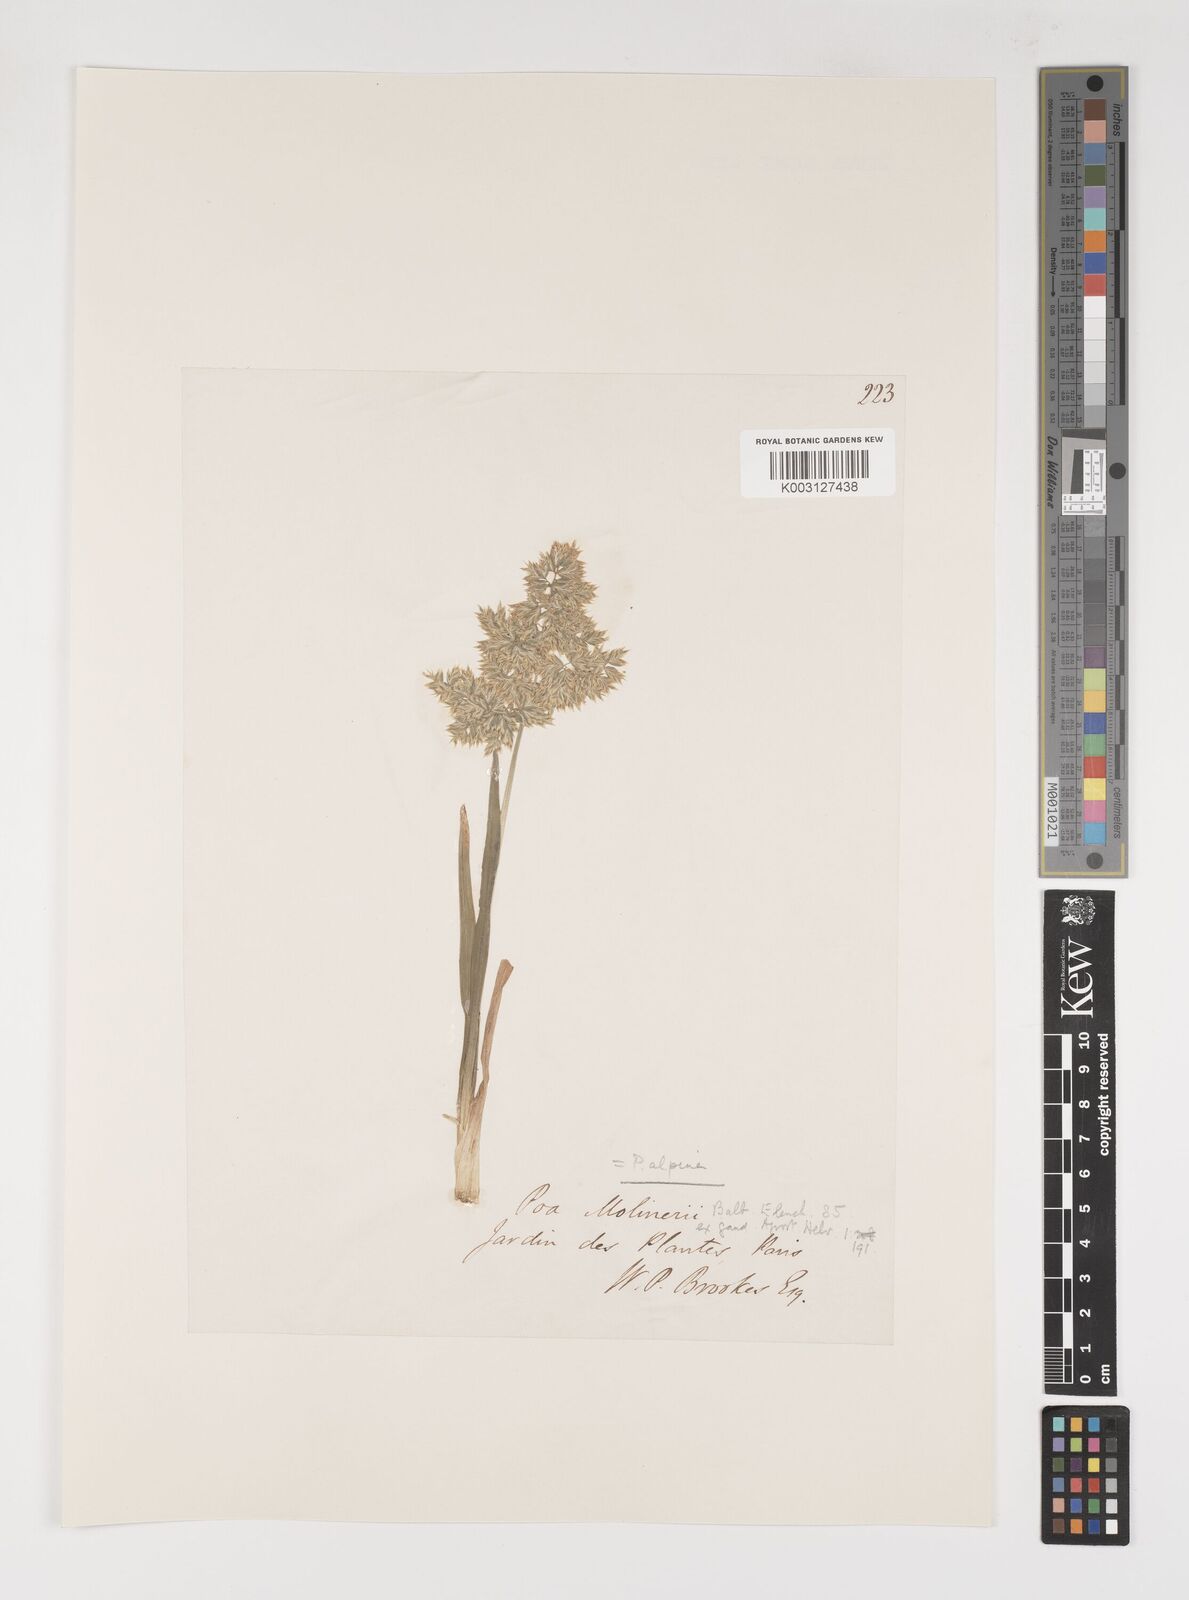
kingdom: Plantae
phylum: Tracheophyta
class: Liliopsida
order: Poales
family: Poaceae
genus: Poa
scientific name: Poa alpina
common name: Alpine bluegrass
